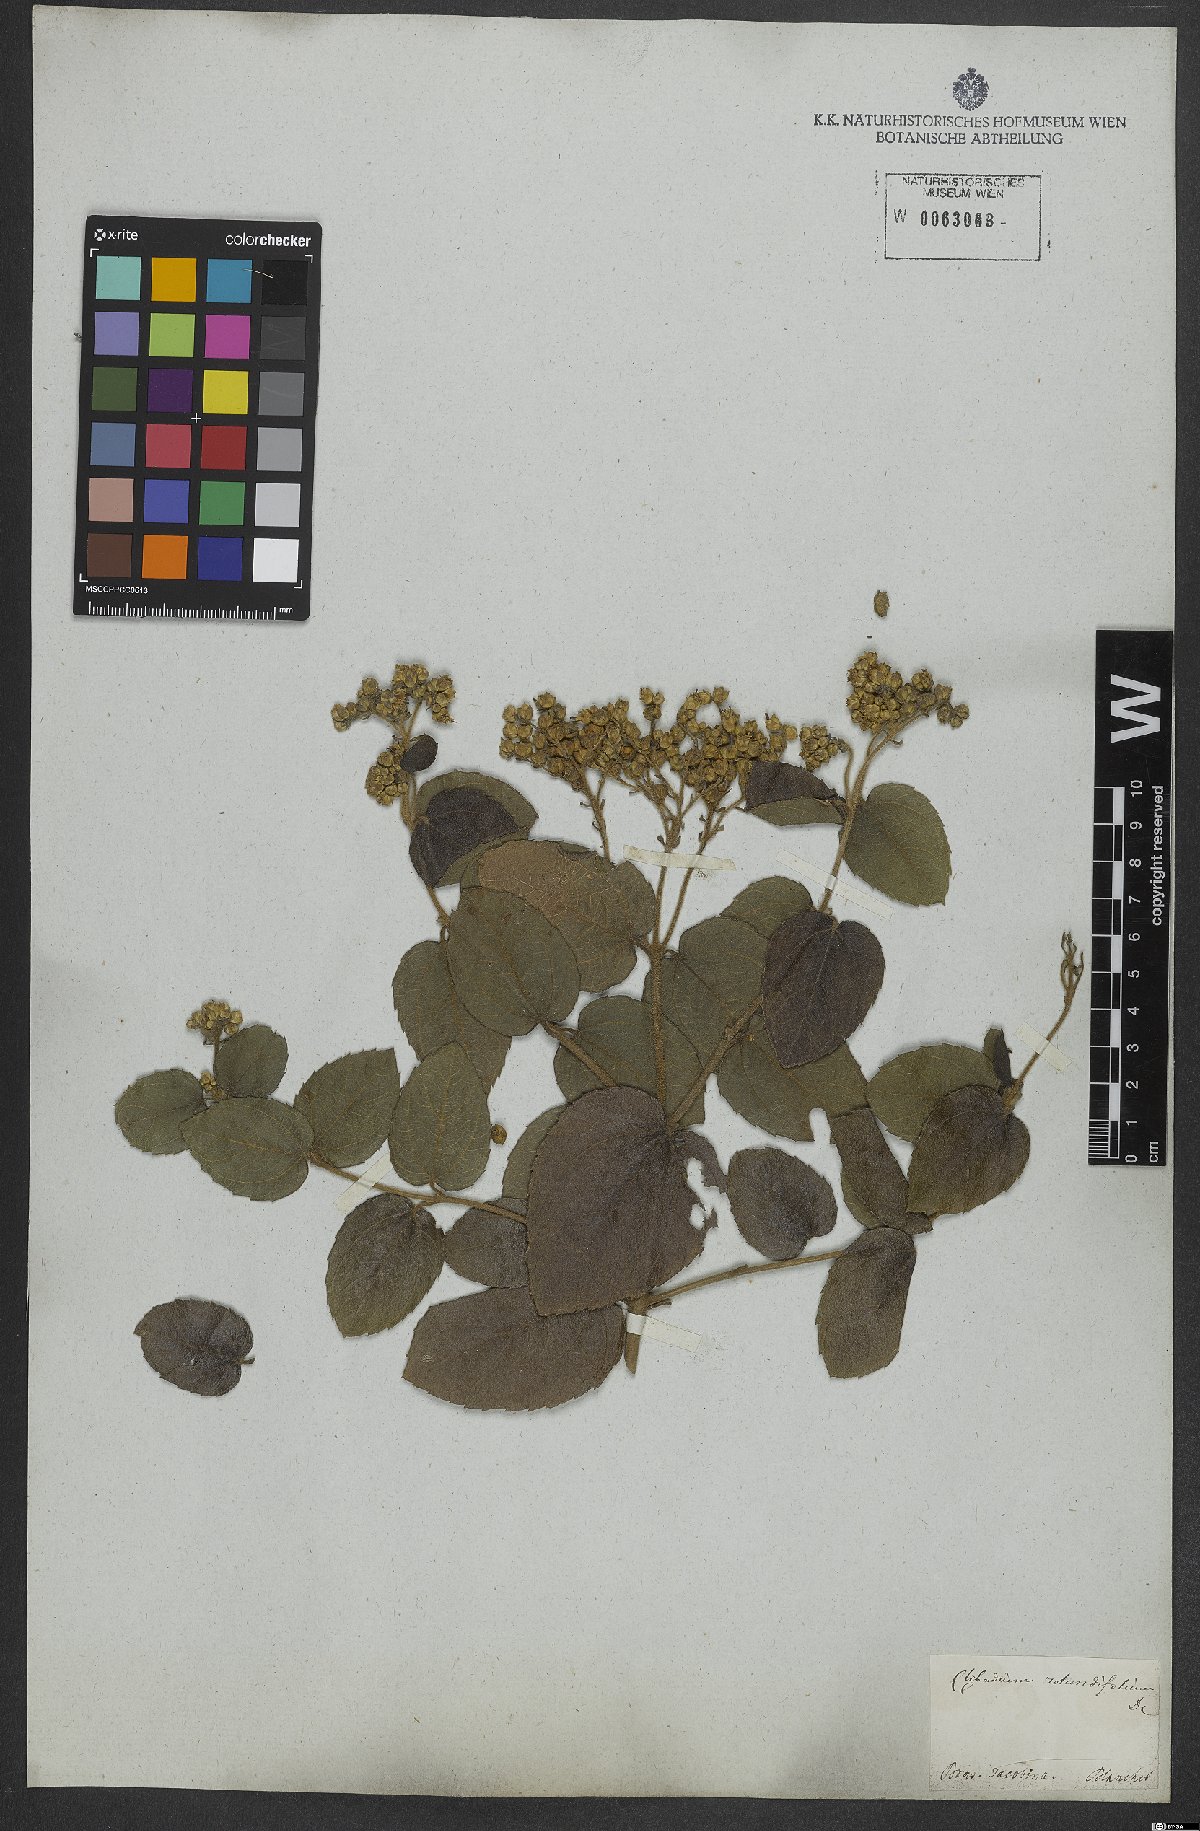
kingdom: Plantae
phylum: Tracheophyta
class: Magnoliopsida
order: Asterales
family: Asteraceae
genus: Clibadium
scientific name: Clibadium armanii
